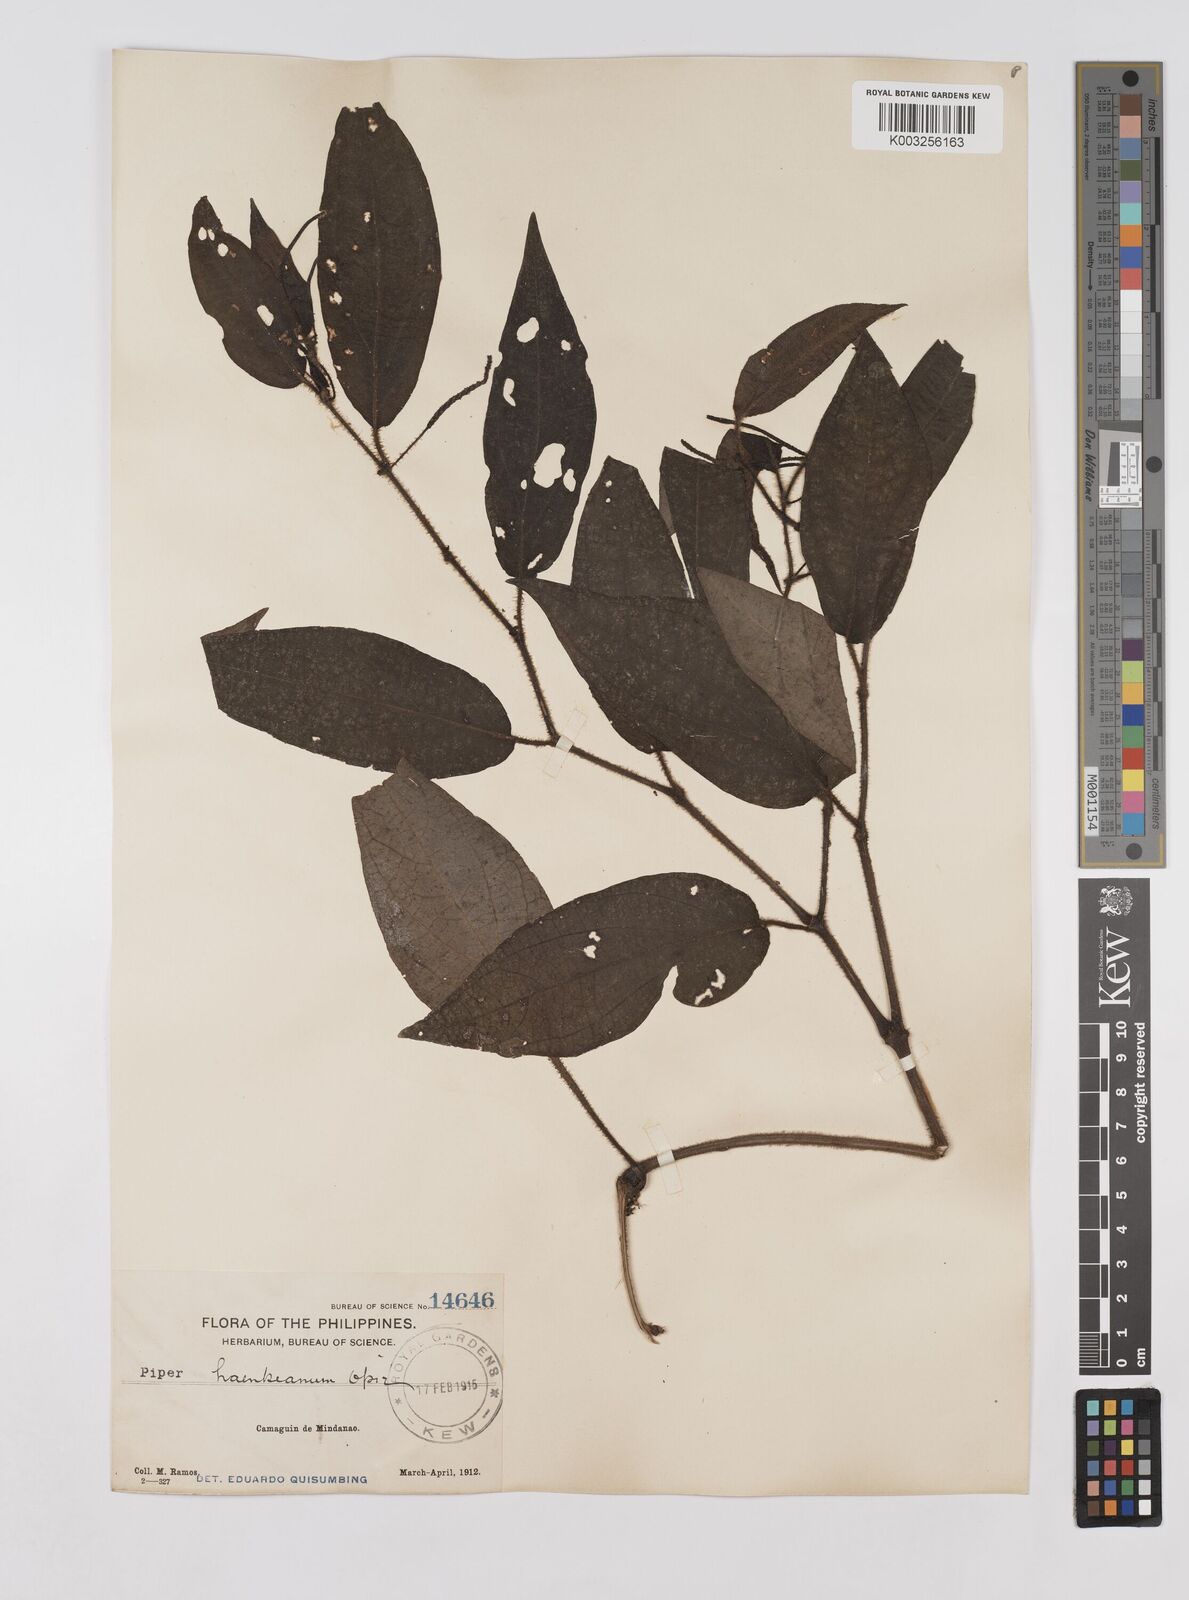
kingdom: Plantae
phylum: Tracheophyta
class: Magnoliopsida
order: Piperales
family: Piperaceae
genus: Piper
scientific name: Piper lanatum
